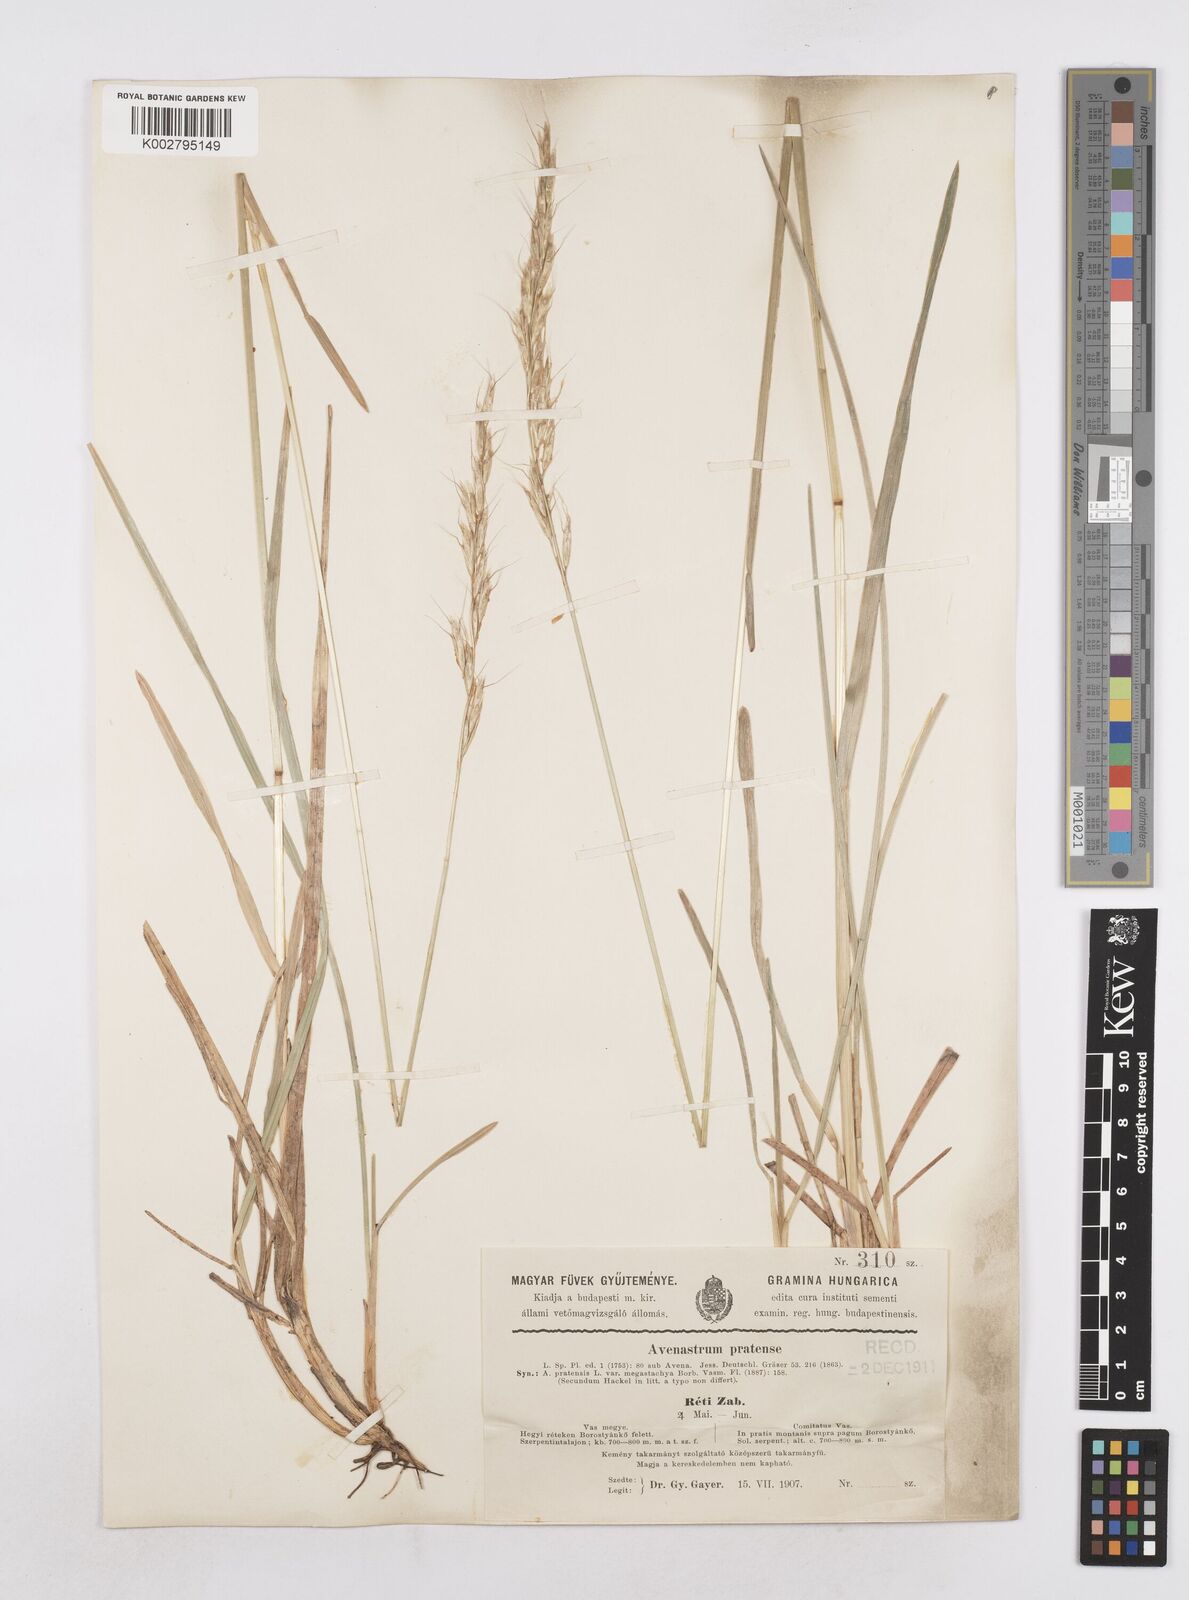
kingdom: Plantae
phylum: Tracheophyta
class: Liliopsida
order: Poales
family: Poaceae
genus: Helictochloa
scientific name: Helictochloa pratensis
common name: Meadow oat grass
